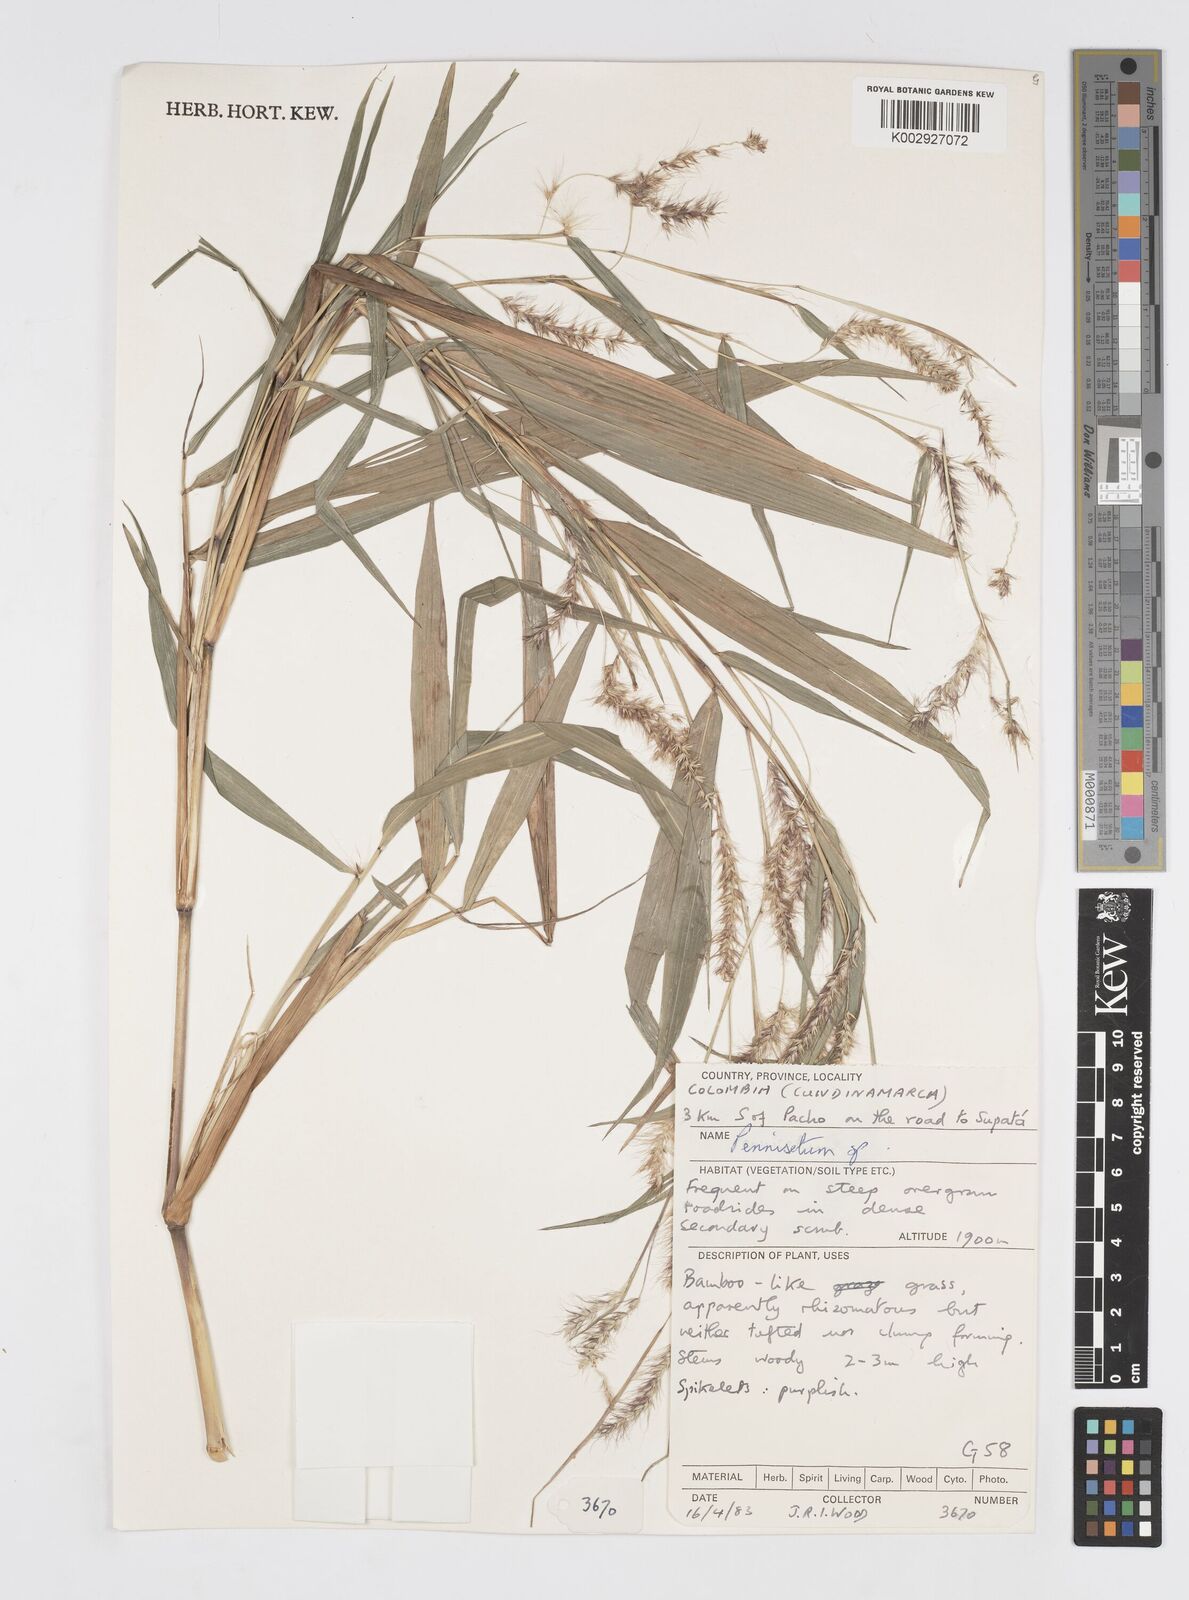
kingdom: Plantae
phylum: Tracheophyta
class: Liliopsida
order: Poales
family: Poaceae
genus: Cenchrus
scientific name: Cenchrus tristachyus
